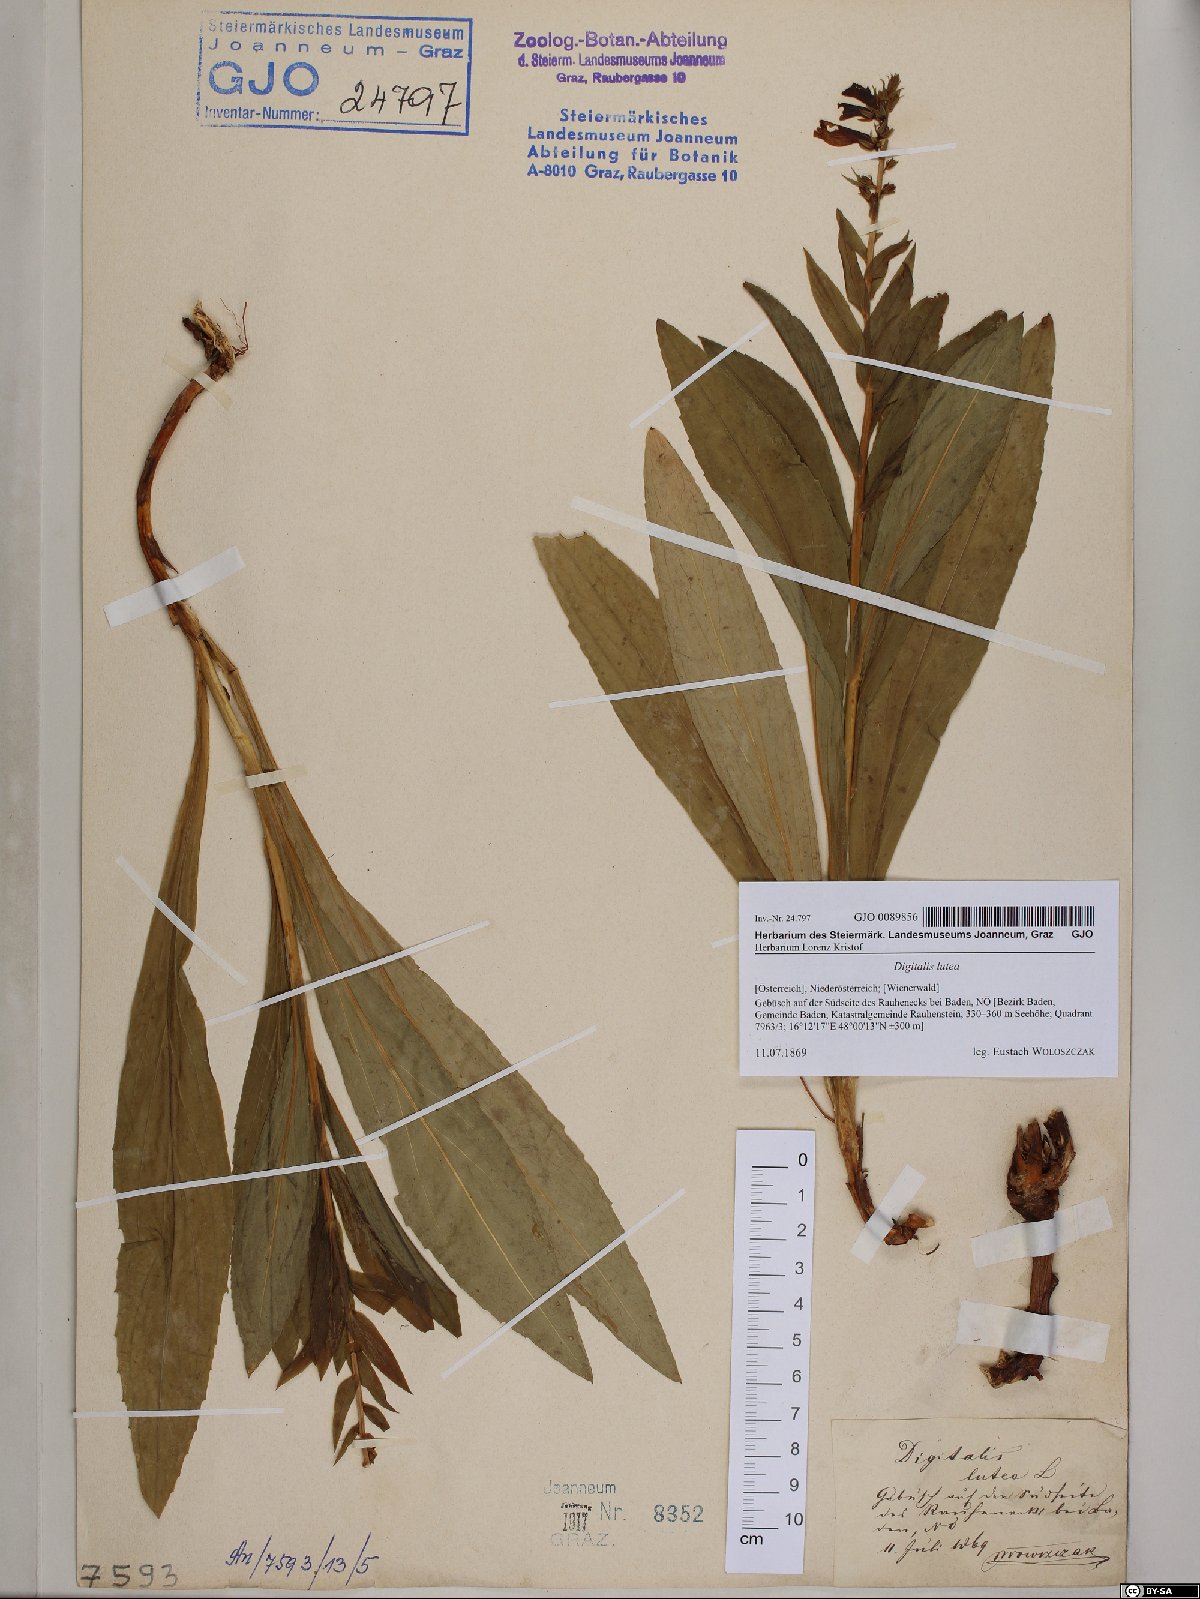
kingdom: Plantae
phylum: Tracheophyta
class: Magnoliopsida
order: Lamiales
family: Plantaginaceae
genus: Digitalis
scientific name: Digitalis lutea
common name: Straw foxglove
